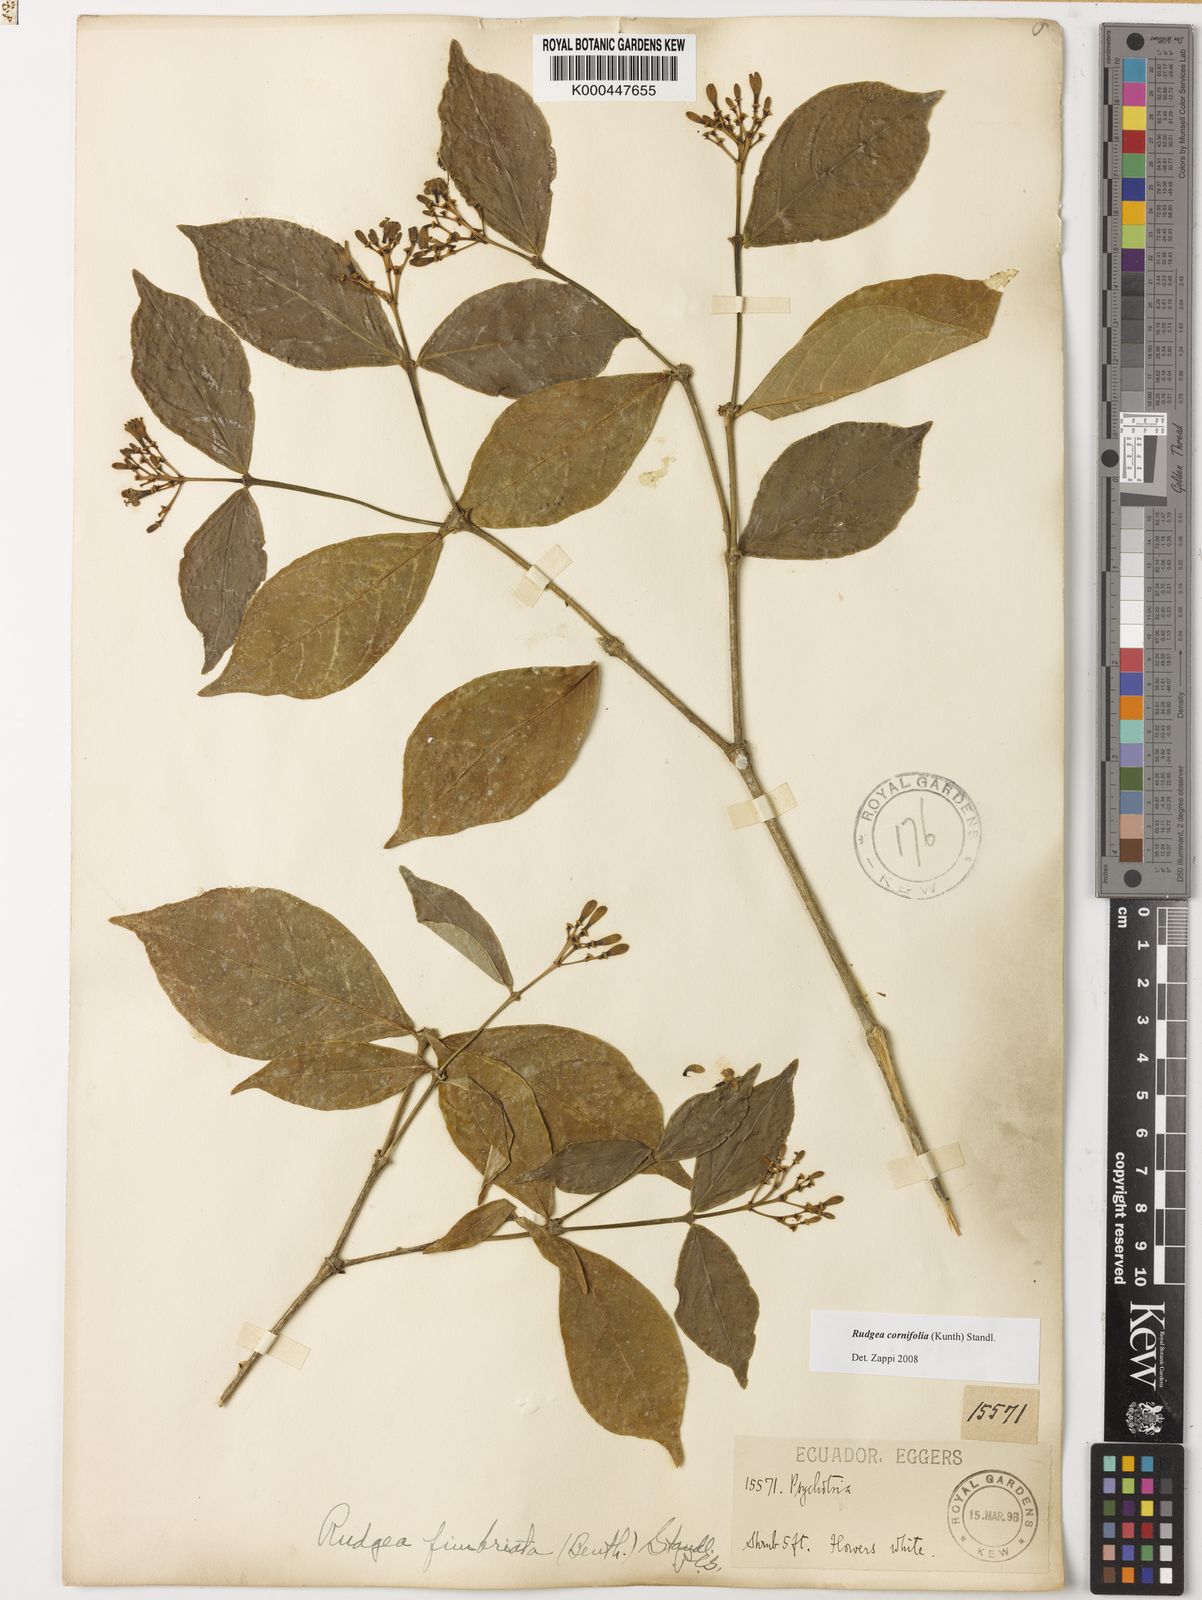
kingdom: Plantae
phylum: Tracheophyta
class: Magnoliopsida
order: Gentianales
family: Rubiaceae
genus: Rudgea
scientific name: Rudgea cornifolia
